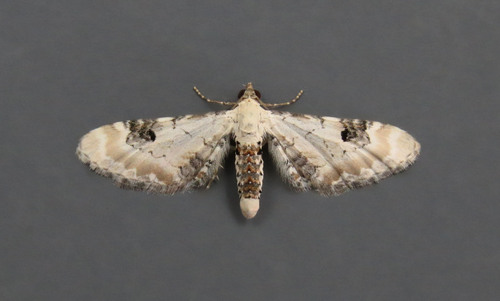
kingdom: Animalia
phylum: Arthropoda
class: Insecta
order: Lepidoptera
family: Geometridae
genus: Eupithecia
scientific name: Eupithecia centaureata
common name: Lime-speck pug
